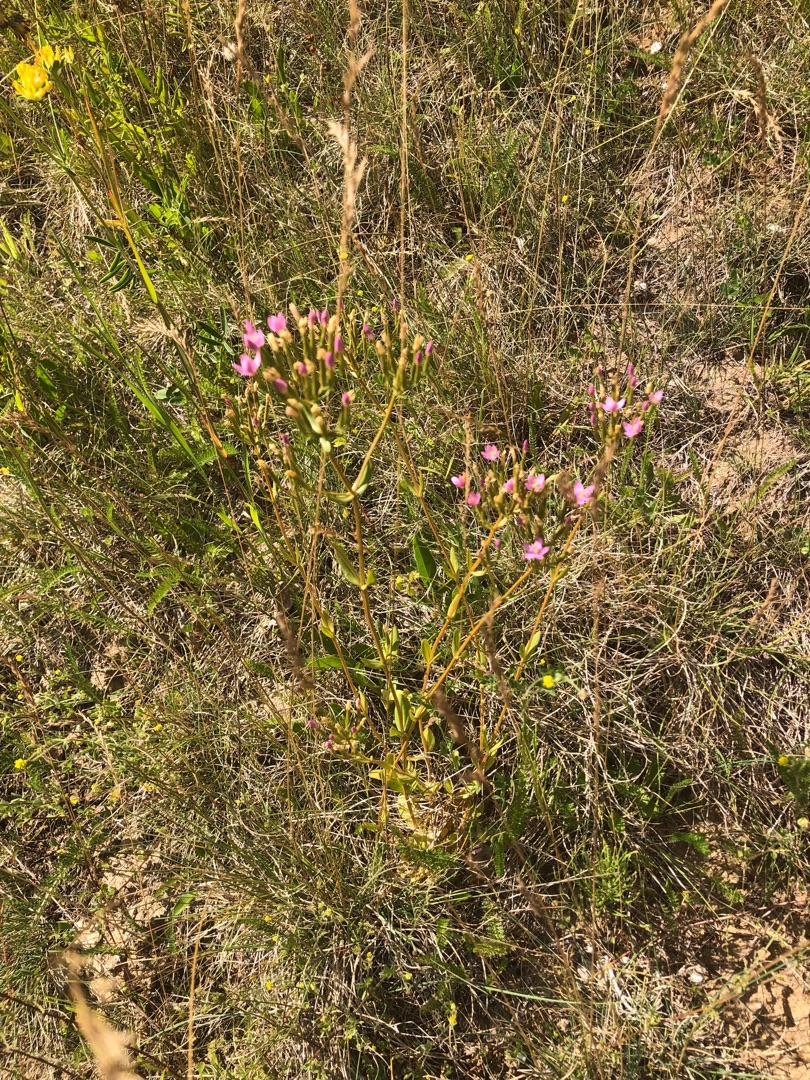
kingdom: Plantae
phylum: Tracheophyta
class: Magnoliopsida
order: Gentianales
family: Gentianaceae
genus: Centaurium
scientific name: Centaurium erythraea
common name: Mark-tusindgylden
